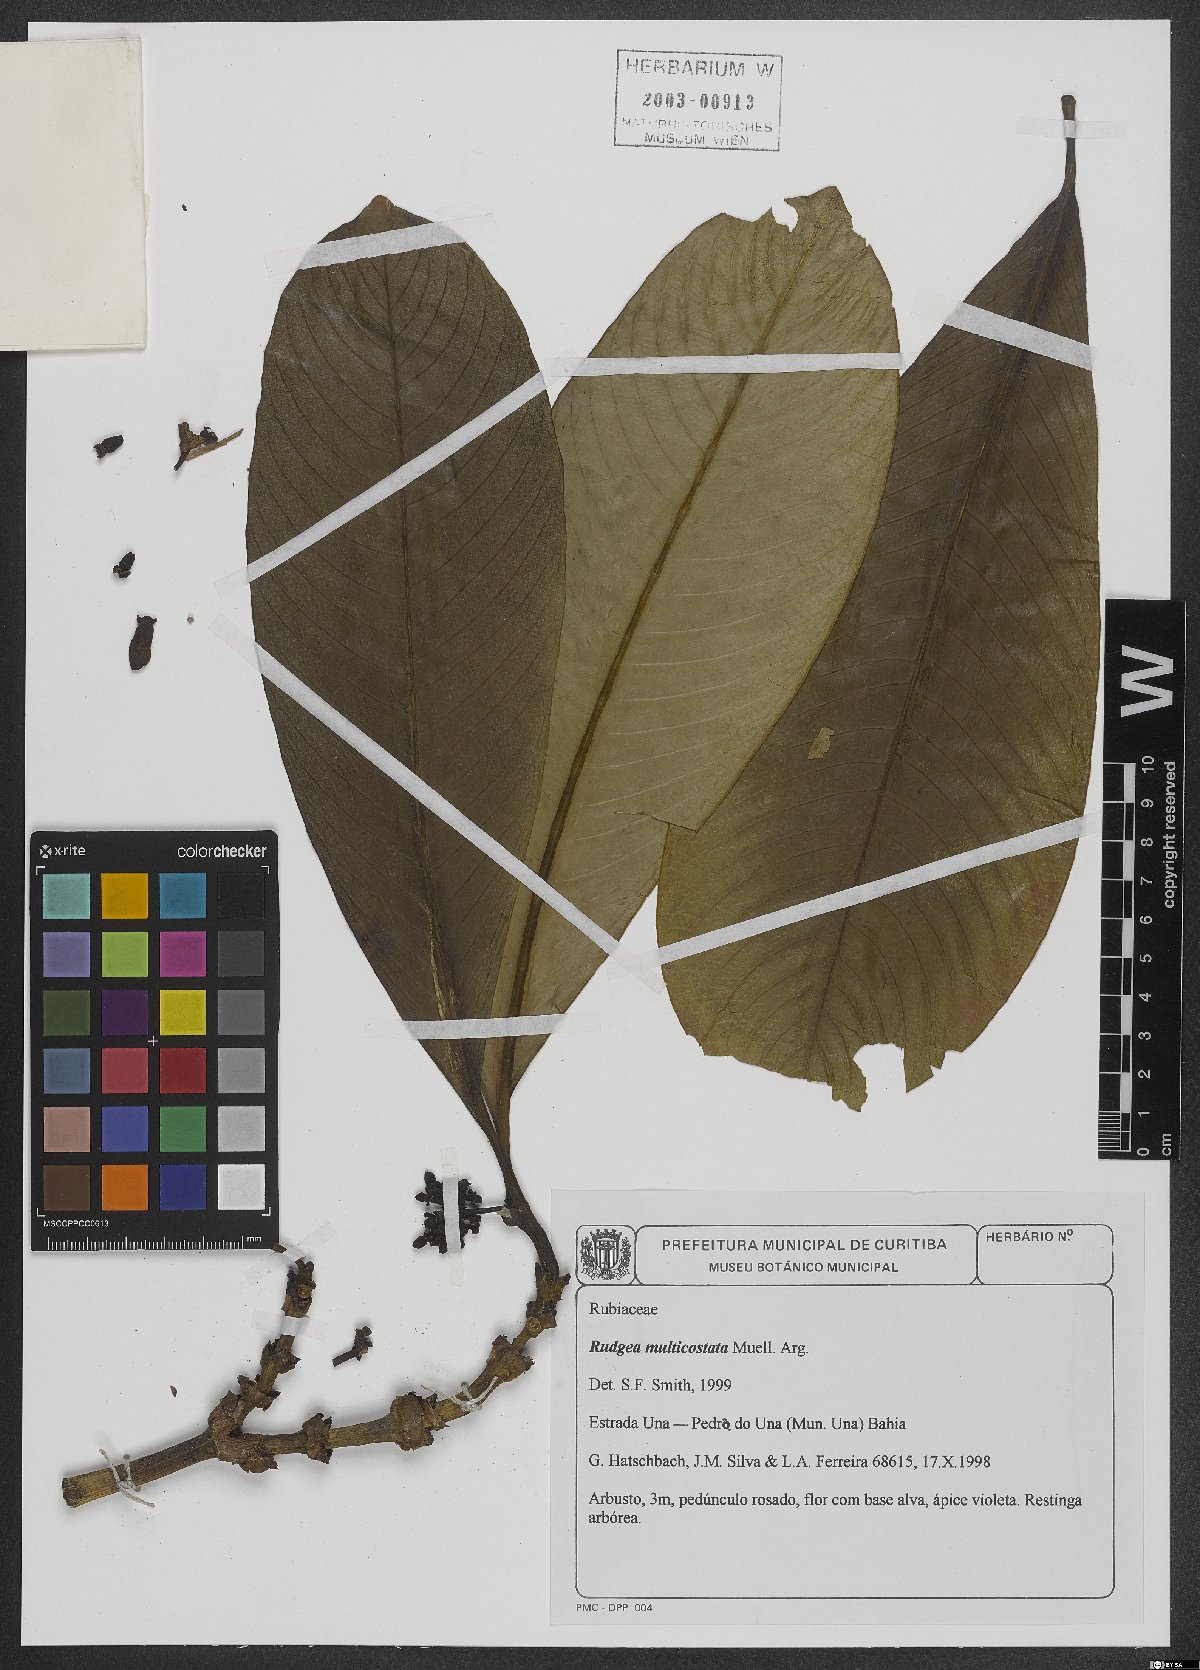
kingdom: Plantae
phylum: Tracheophyta
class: Magnoliopsida
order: Gentianales
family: Rubiaceae
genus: Rudgea
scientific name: Rudgea vellerea
